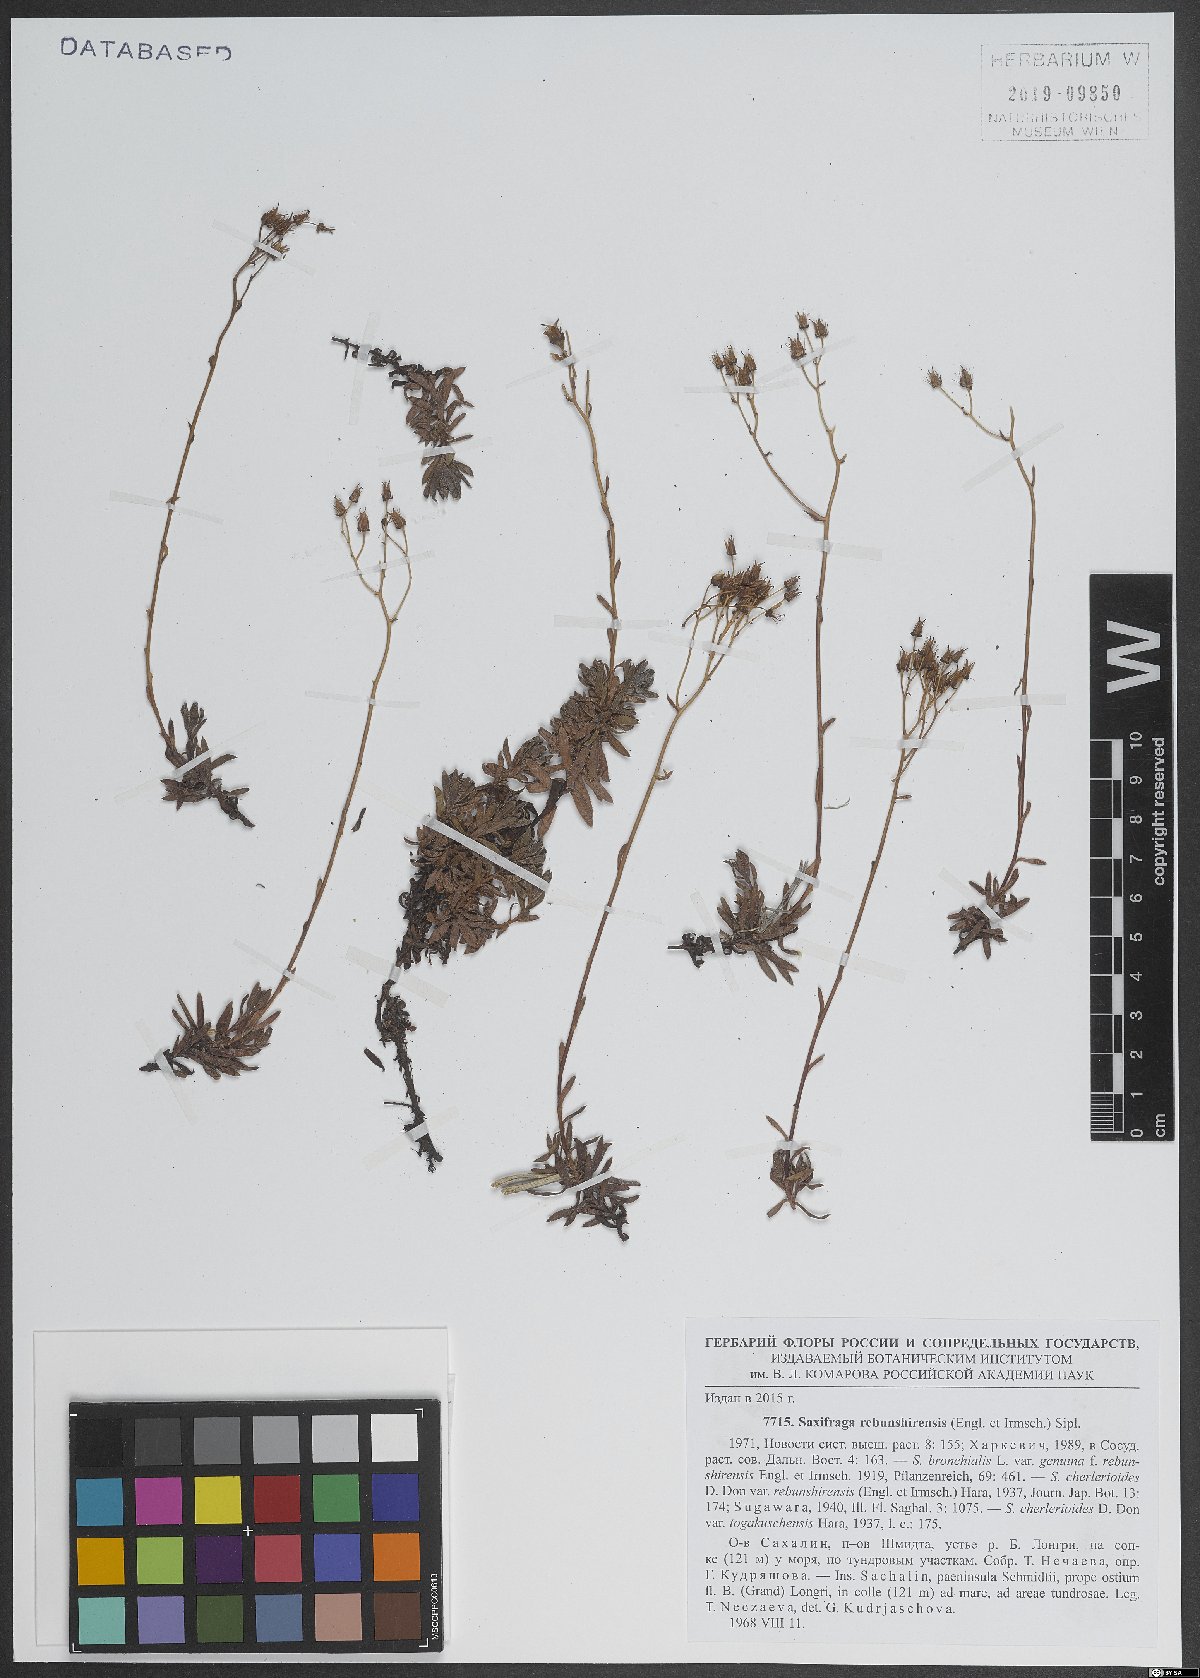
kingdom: Plantae
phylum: Tracheophyta
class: Magnoliopsida
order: Saxifragales
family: Saxifragaceae
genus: Saxifraga
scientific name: Saxifraga bronchialis
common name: Matted saxifrage
